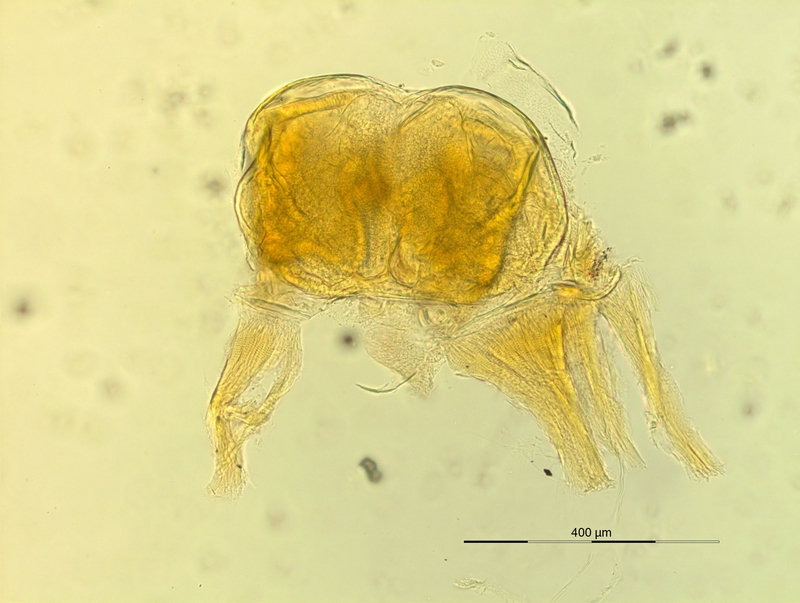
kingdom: Animalia
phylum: Arthropoda
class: Diplopoda
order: Chordeumatida
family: Craspedosomatidae
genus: Pyrgocyphosoma
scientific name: Pyrgocyphosoma longilamellatum
